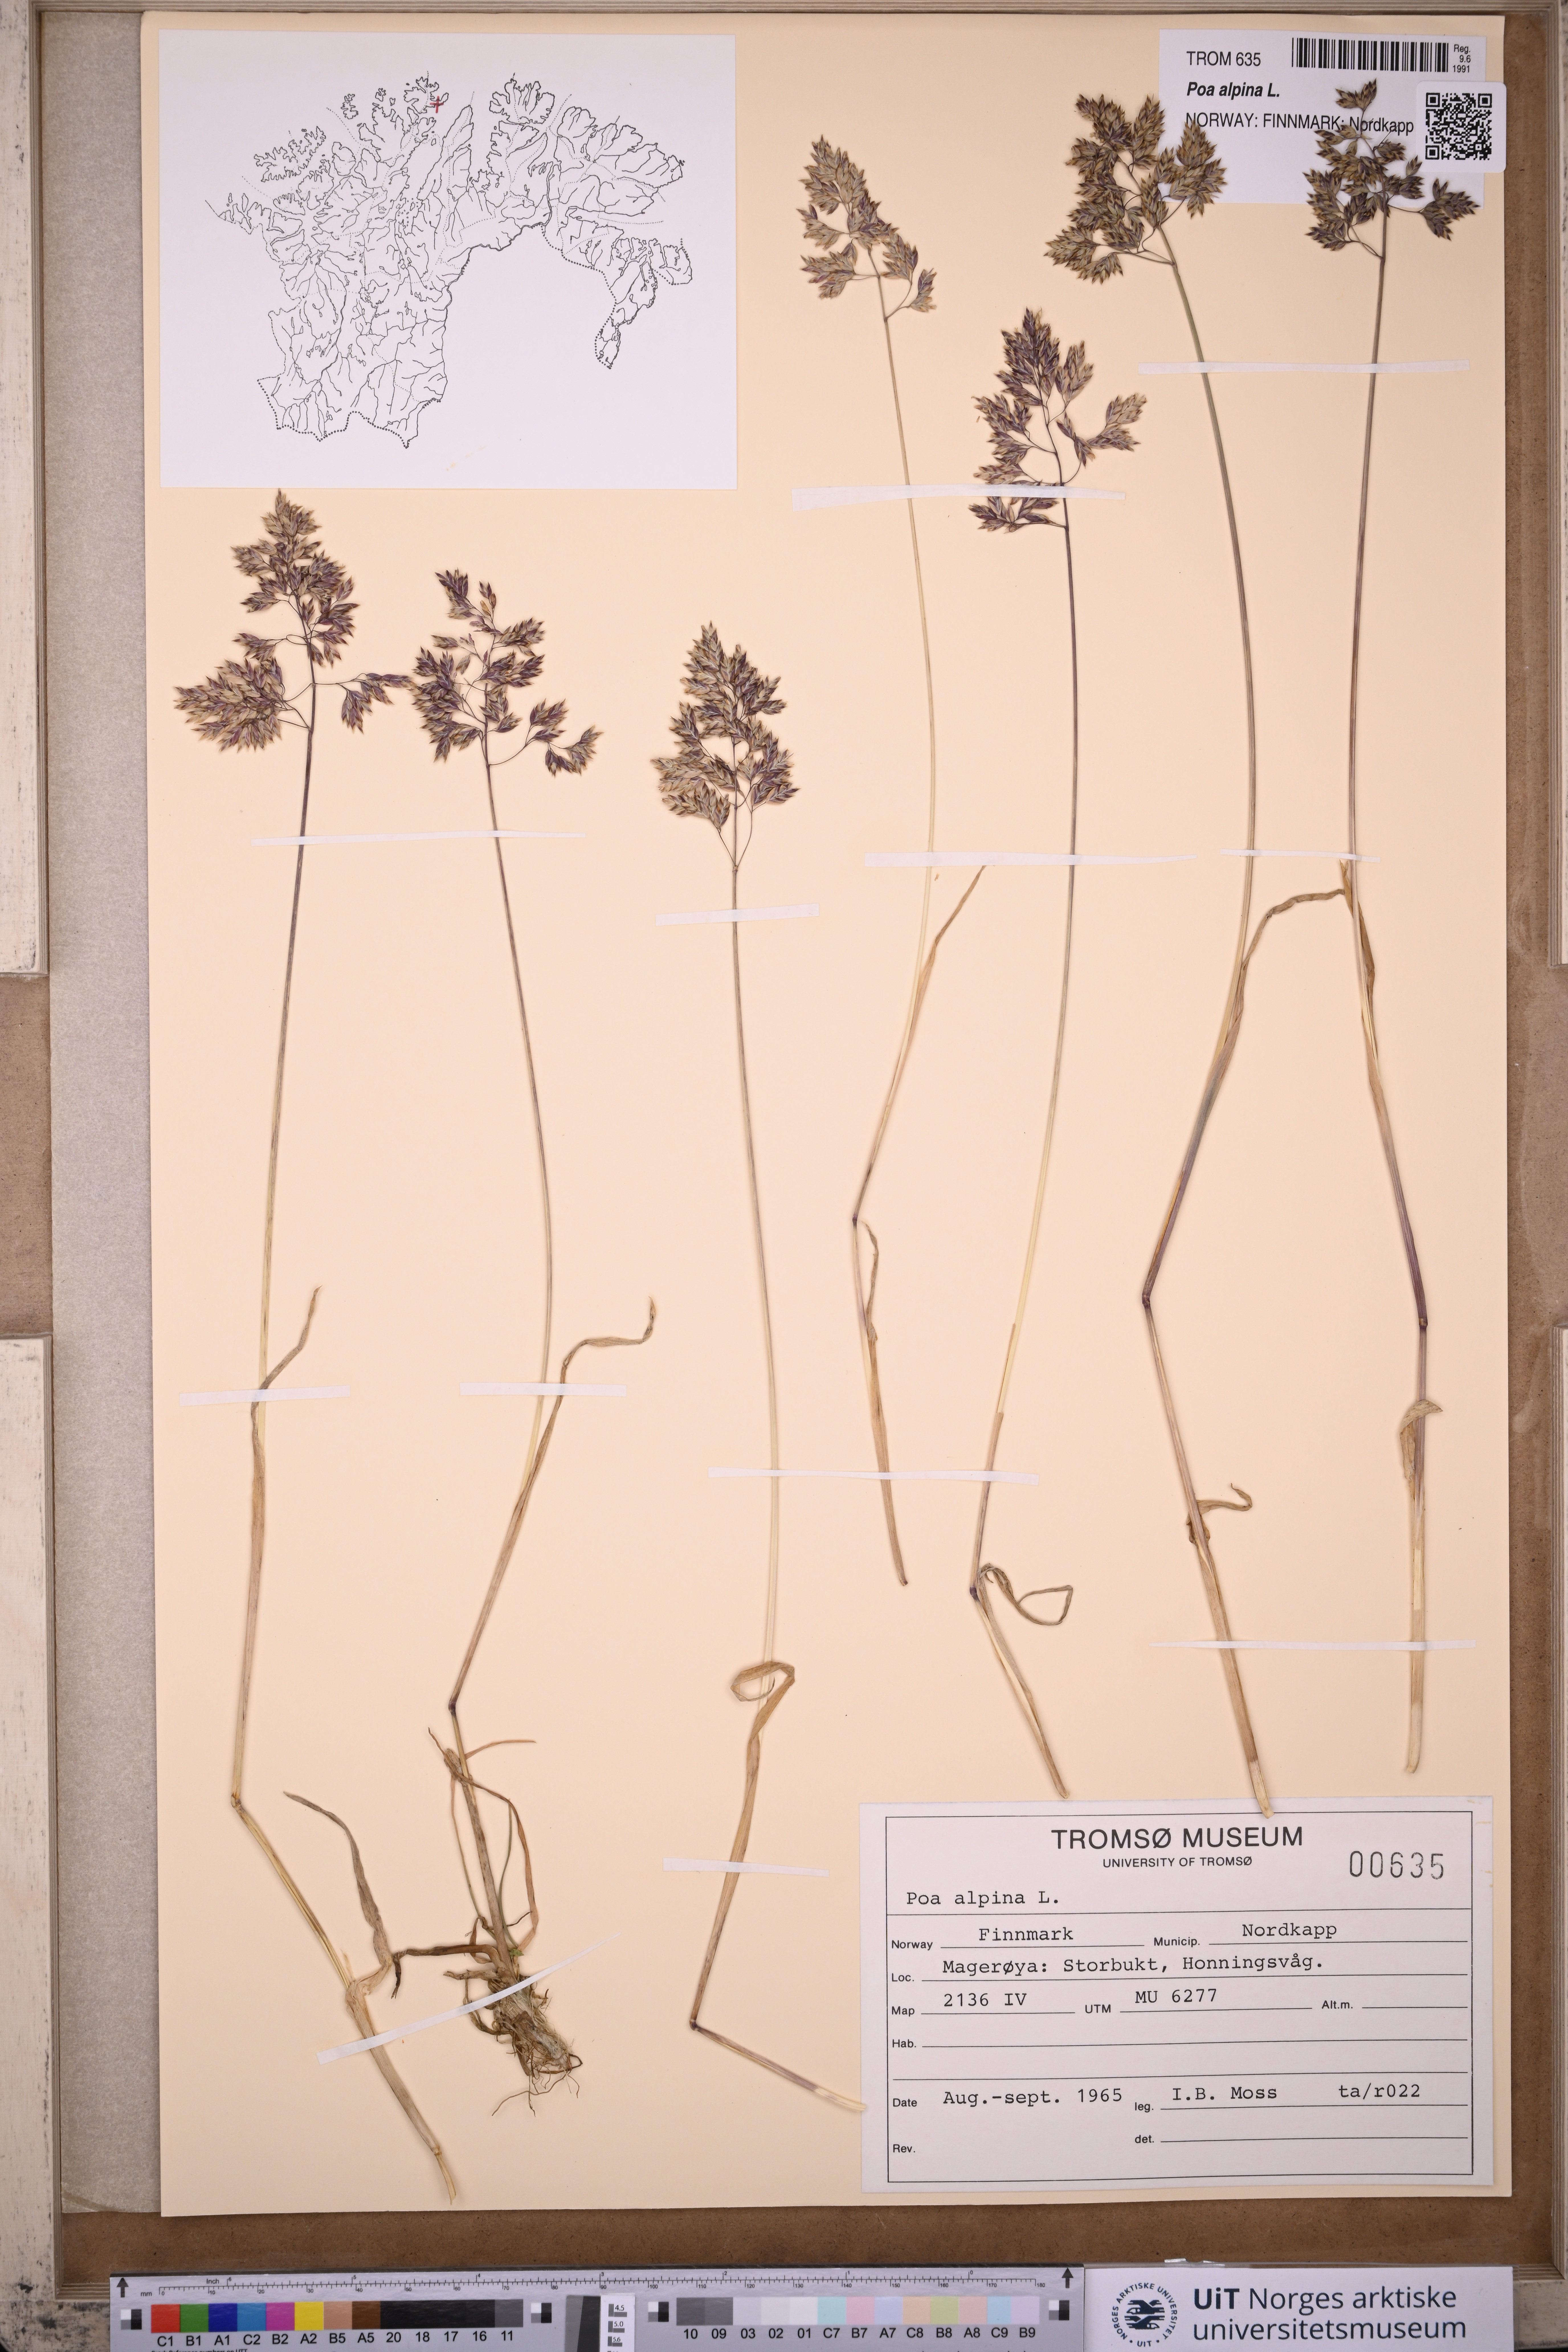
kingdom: Plantae
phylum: Tracheophyta
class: Liliopsida
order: Poales
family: Poaceae
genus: Poa
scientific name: Poa alpina
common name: Alpine bluegrass
